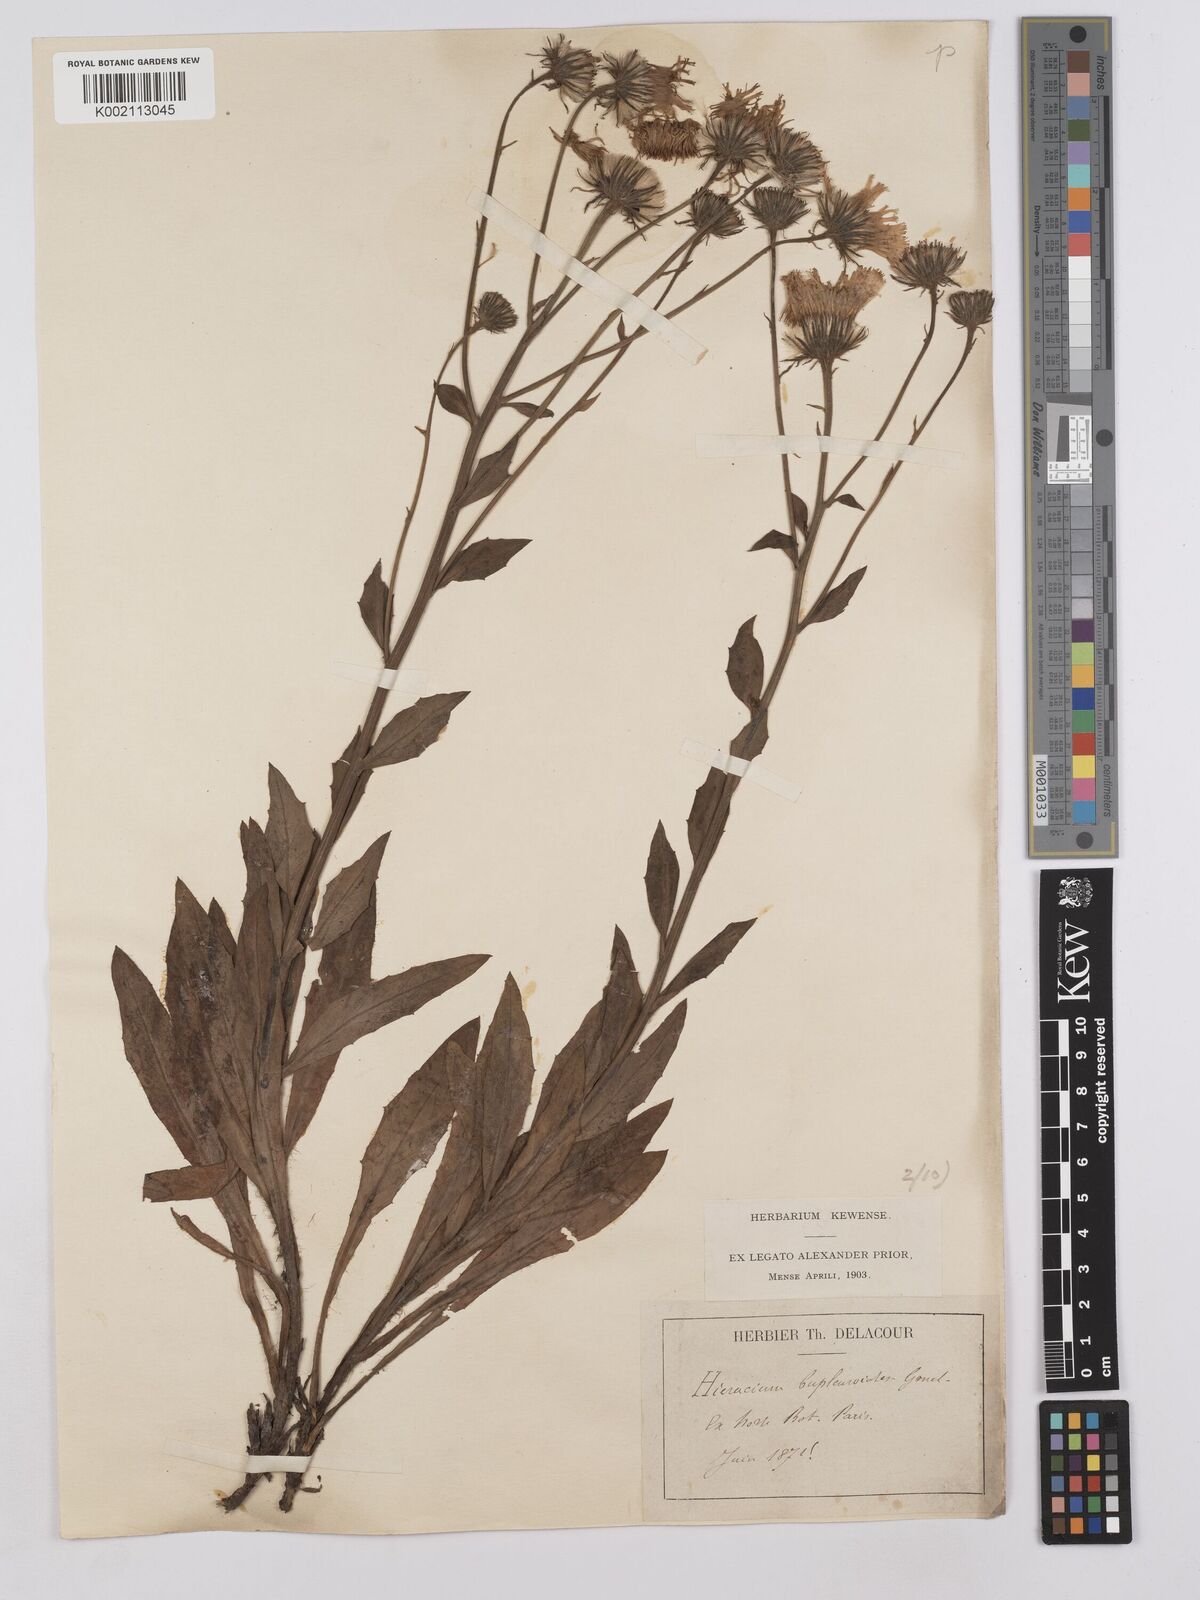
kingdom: Plantae
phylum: Tracheophyta
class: Magnoliopsida
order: Asterales
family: Asteraceae
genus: Hieracium
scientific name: Hieracium bupleuroides
